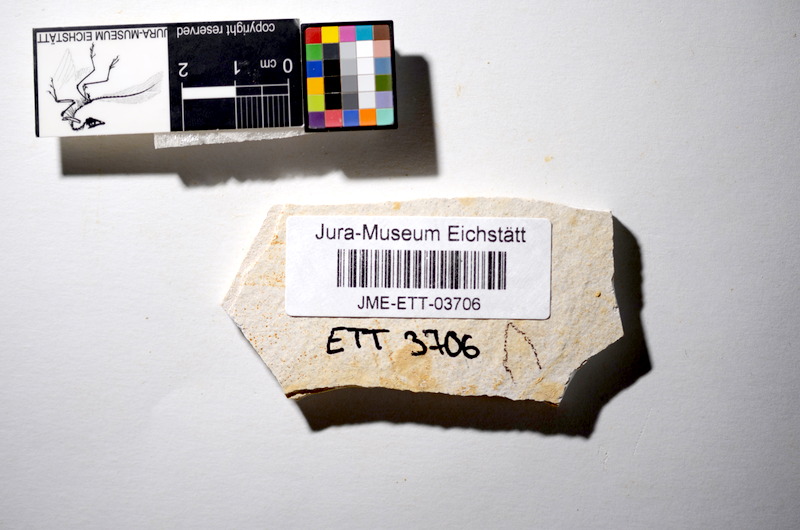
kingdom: Animalia
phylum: Chordata
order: Salmoniformes
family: Orthogonikleithridae
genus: Orthogonikleithrus
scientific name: Orthogonikleithrus hoelli
